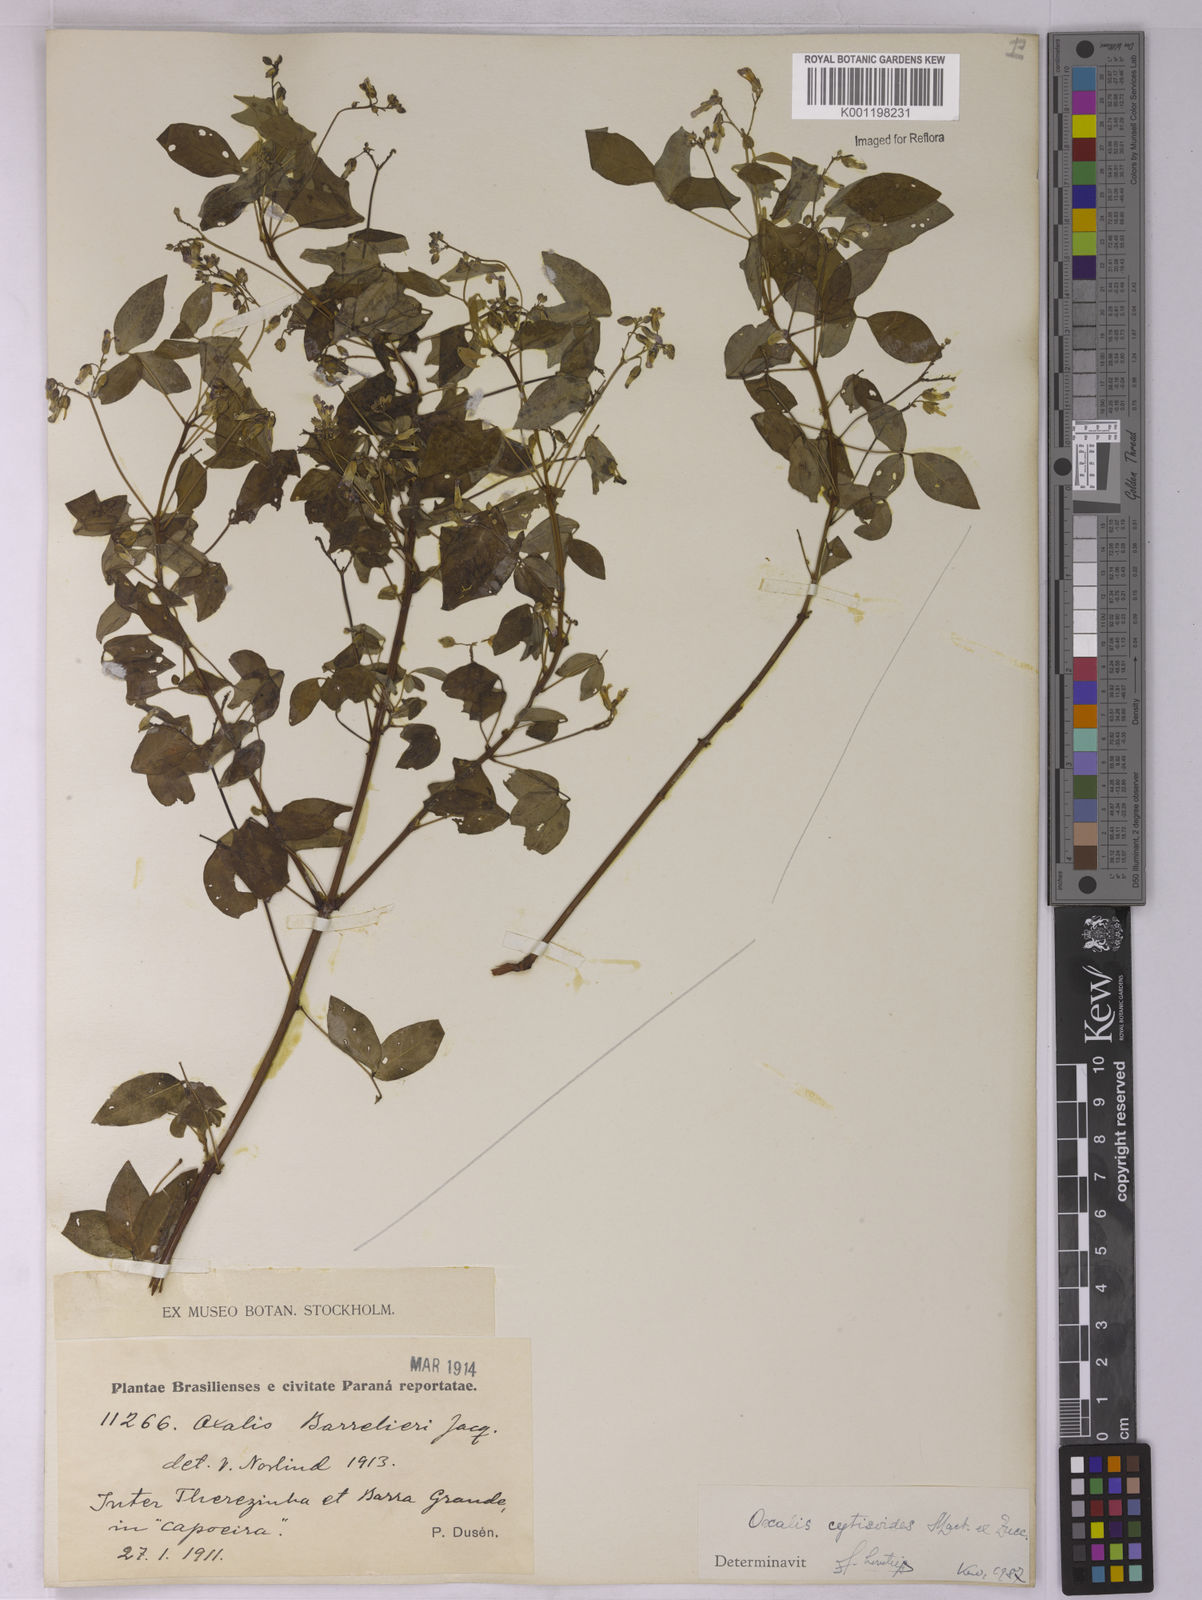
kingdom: Plantae
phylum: Tracheophyta
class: Magnoliopsida
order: Oxalidales
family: Oxalidaceae
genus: Oxalis
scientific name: Oxalis cytisoides
